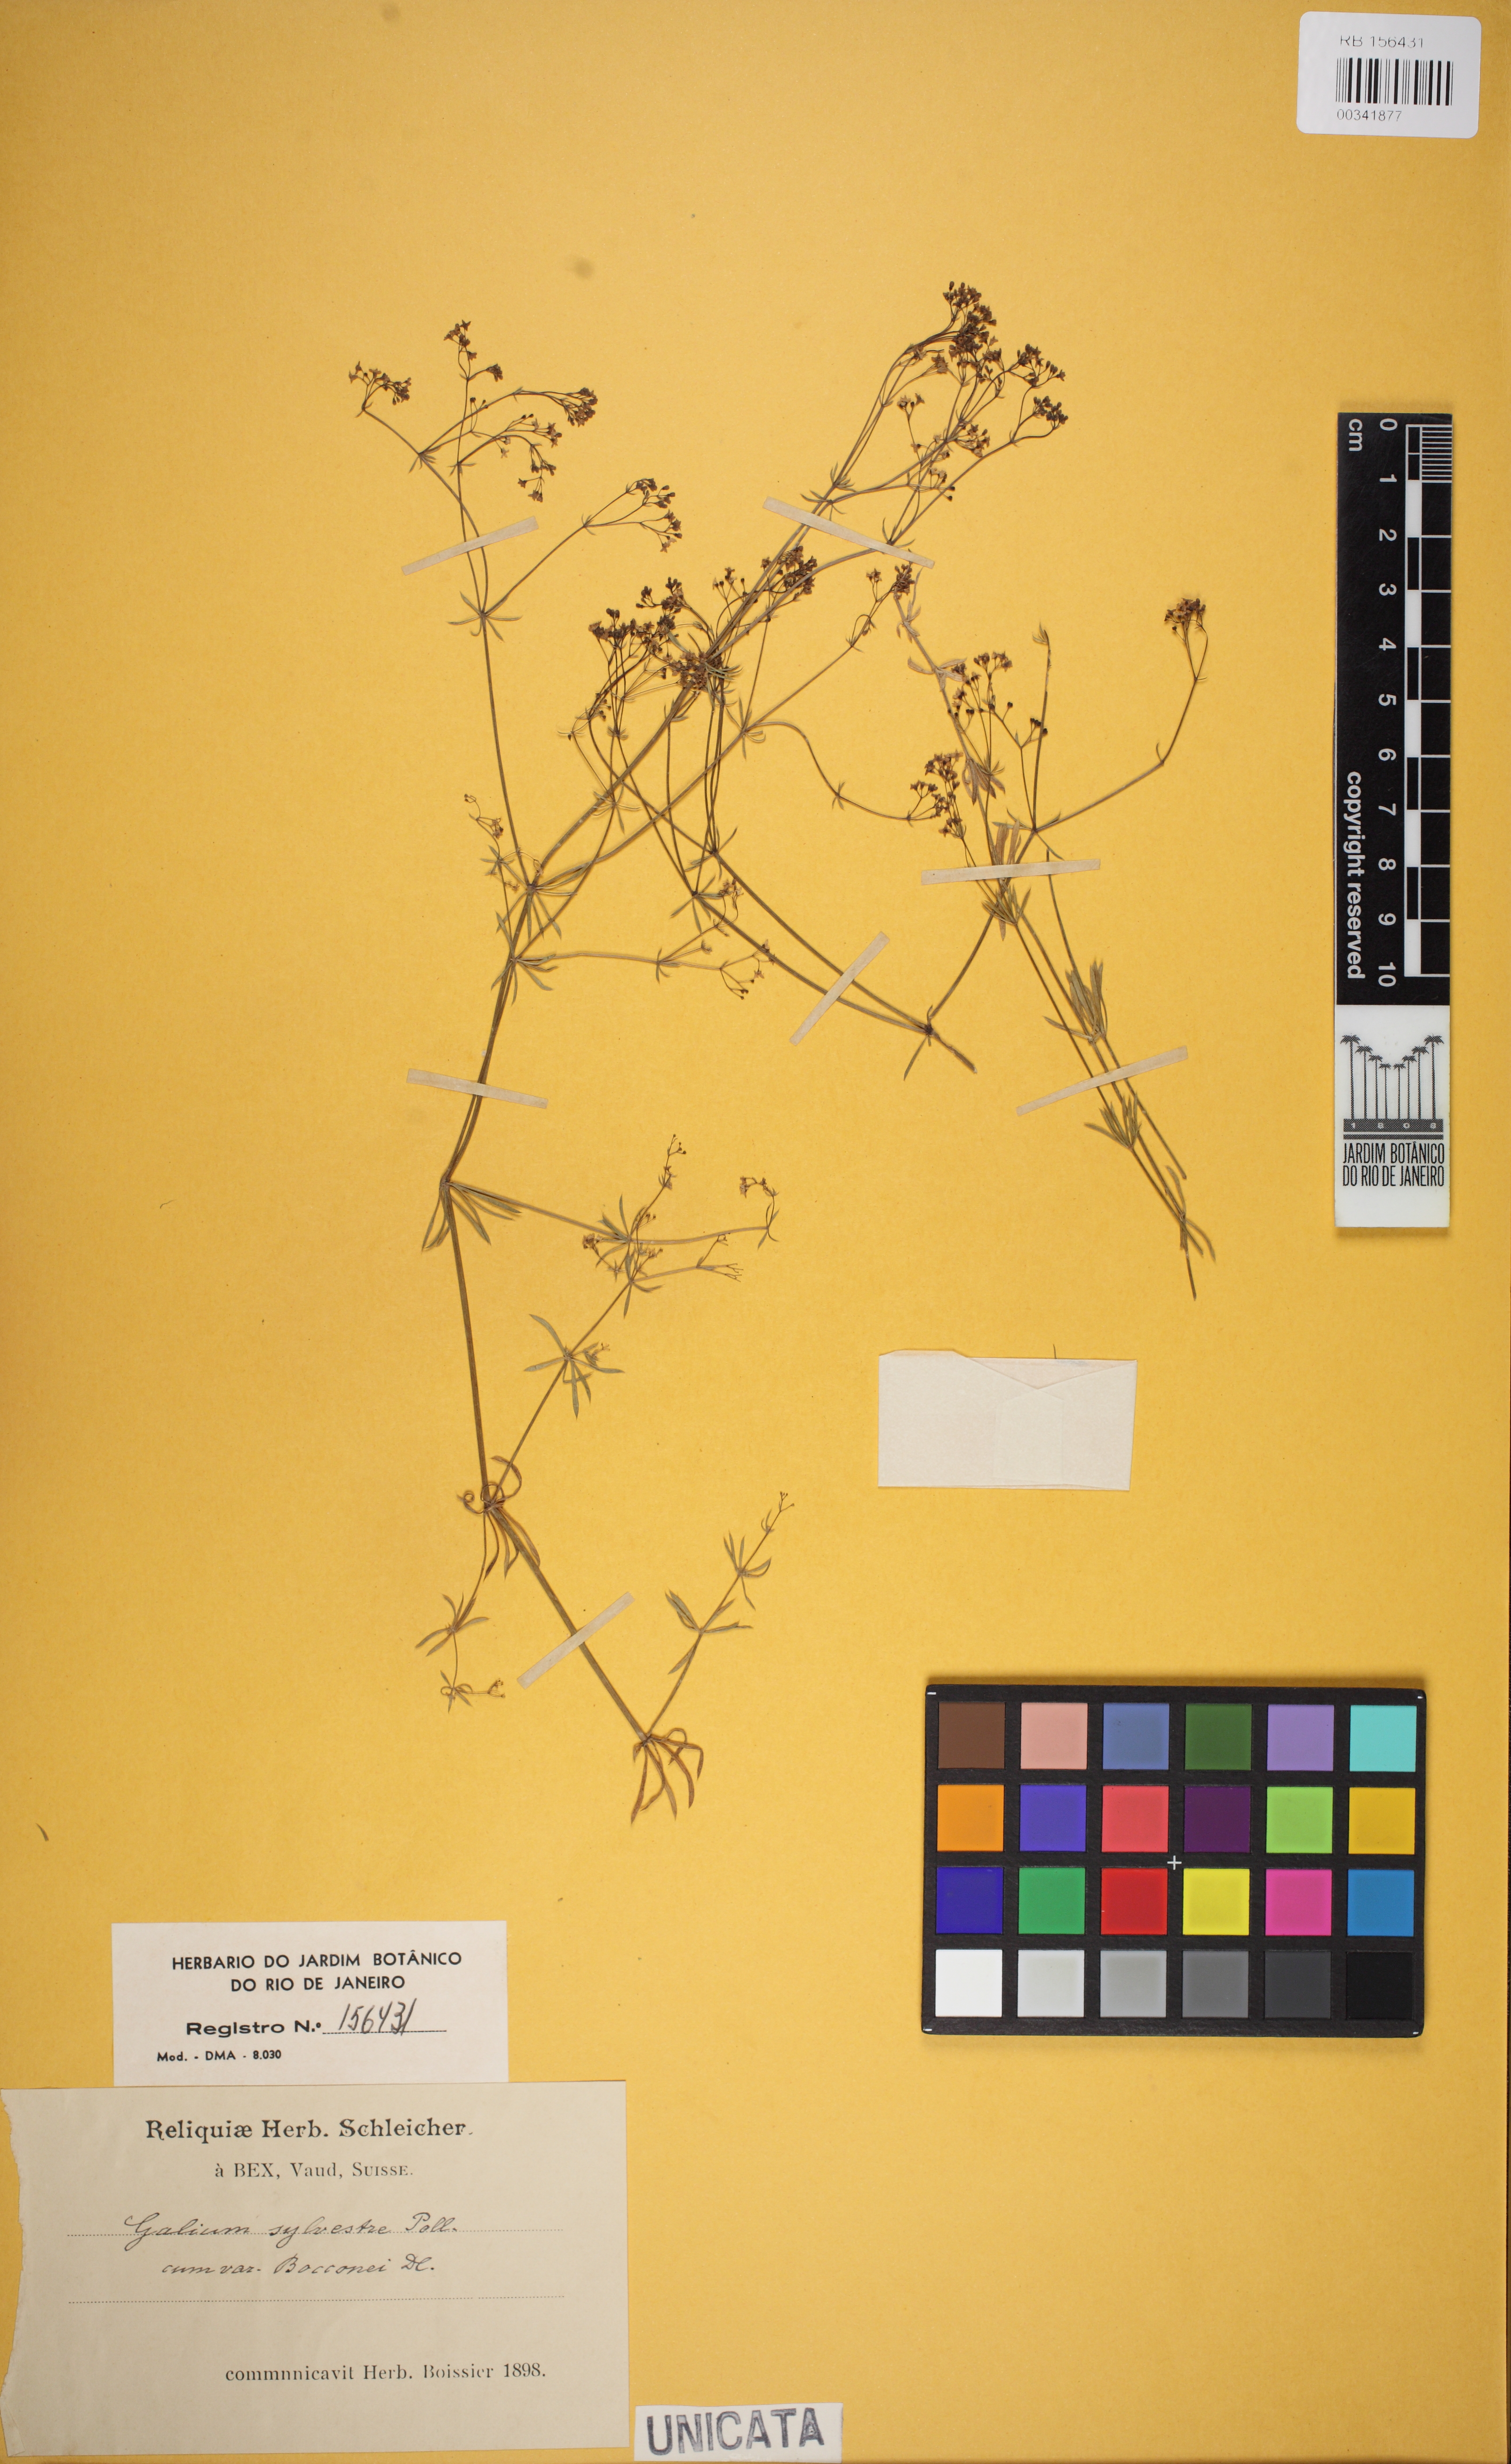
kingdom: Plantae
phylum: Tracheophyta
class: Magnoliopsida
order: Gentianales
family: Rubiaceae
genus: Galium
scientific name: Galium pumilum
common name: Slender bedstraw
